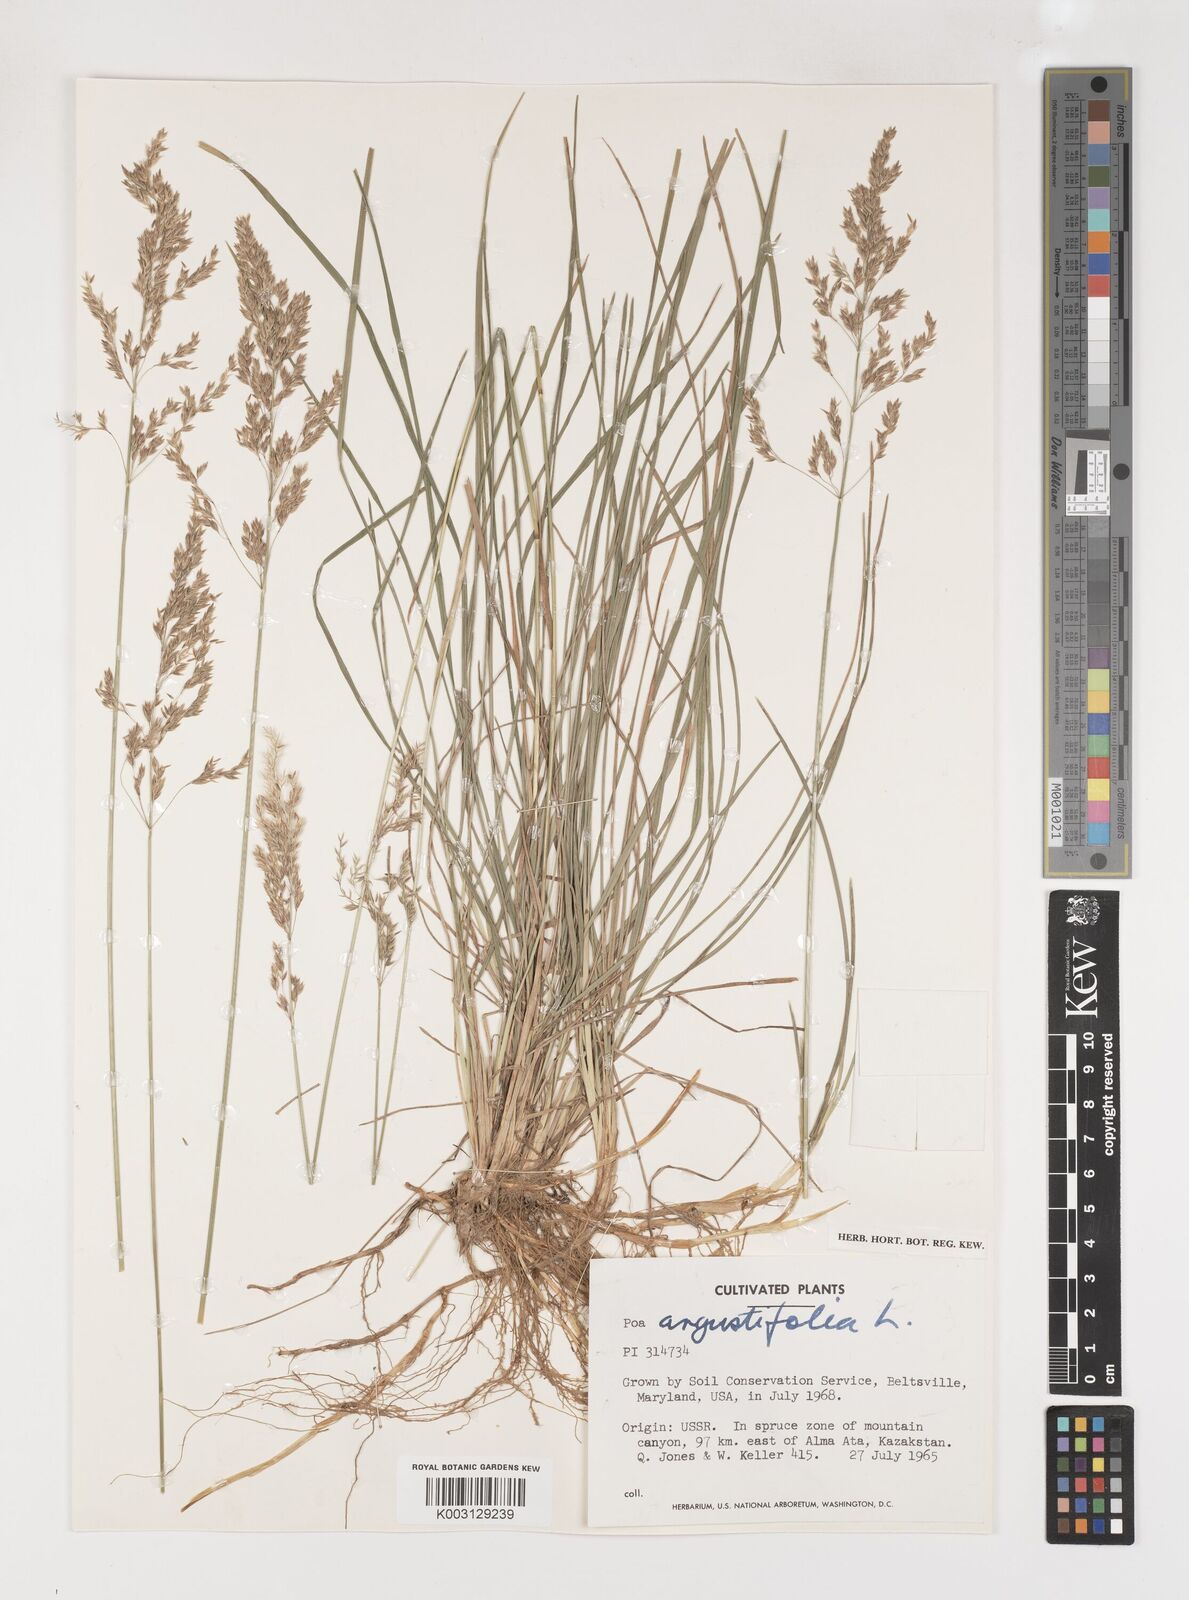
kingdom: Plantae
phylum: Tracheophyta
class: Liliopsida
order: Poales
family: Poaceae
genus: Poa
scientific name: Poa angustifolia
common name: Narrow-leaved meadow-grass
